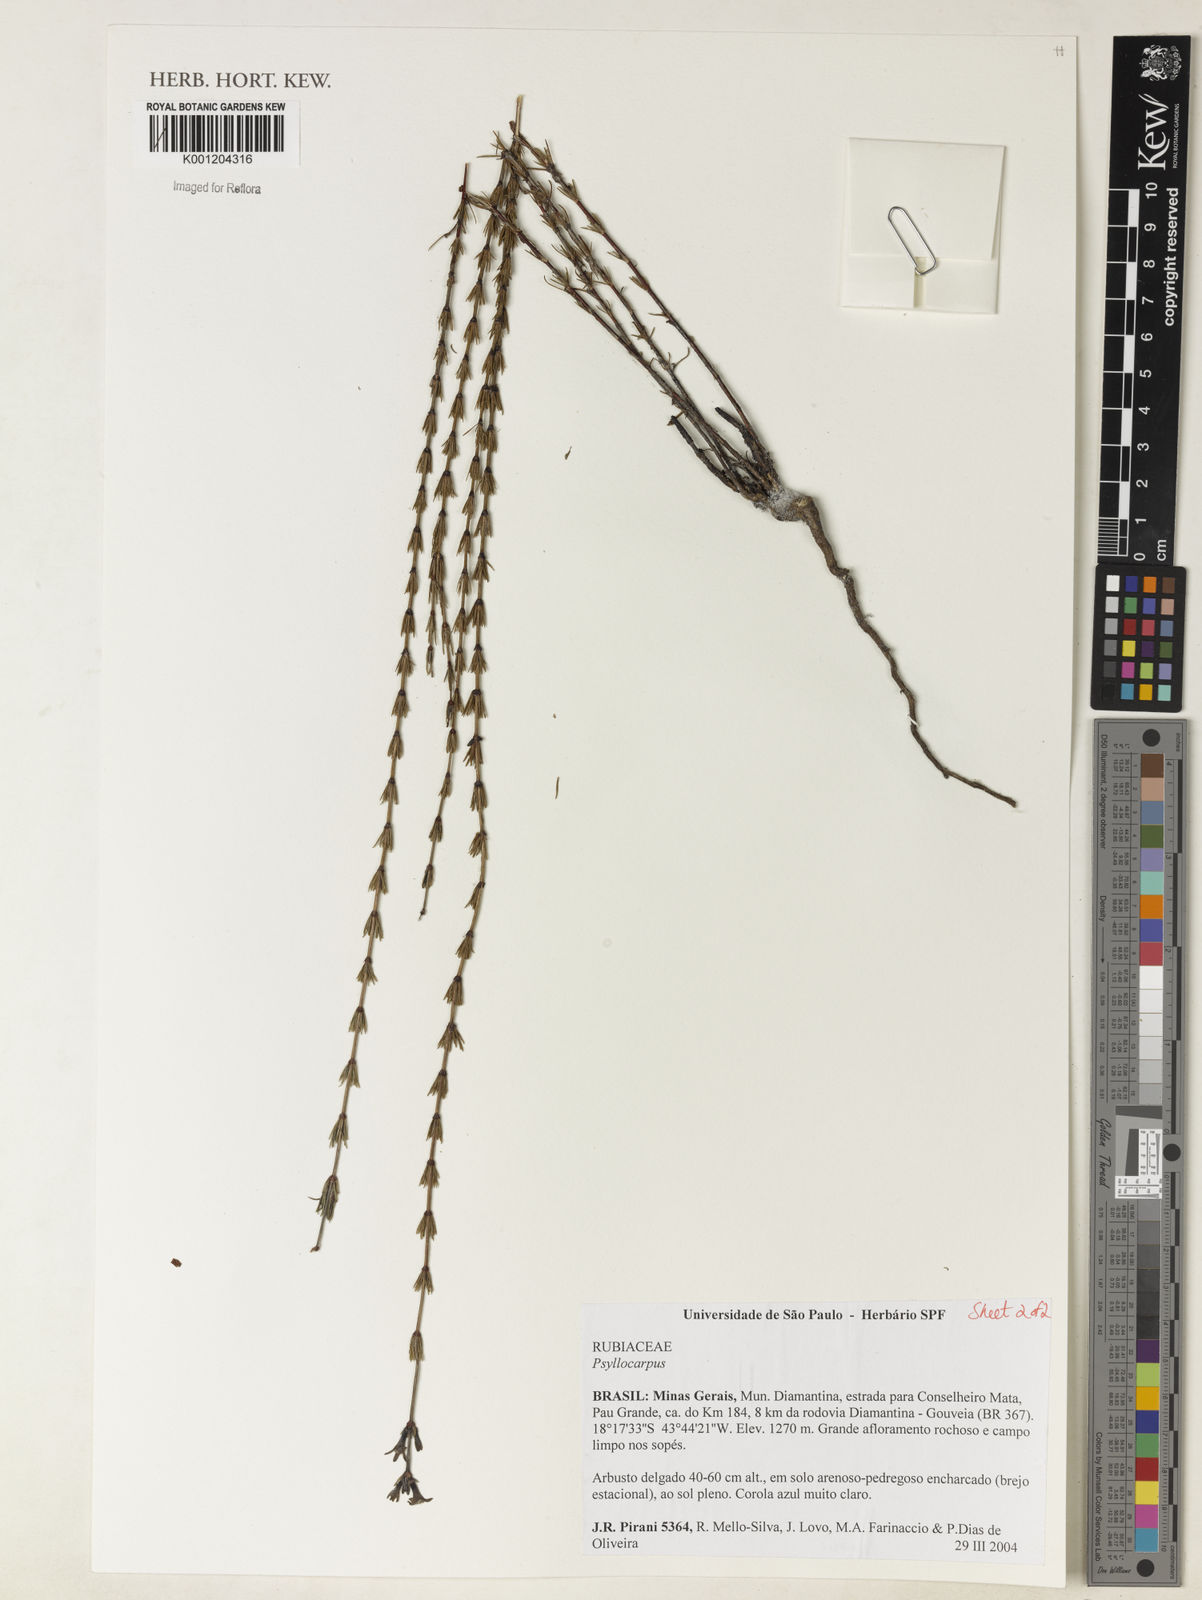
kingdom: Plantae
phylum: Tracheophyta
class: Magnoliopsida
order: Gentianales
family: Rubiaceae
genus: Psyllocarpus
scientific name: Psyllocarpus laricoides
